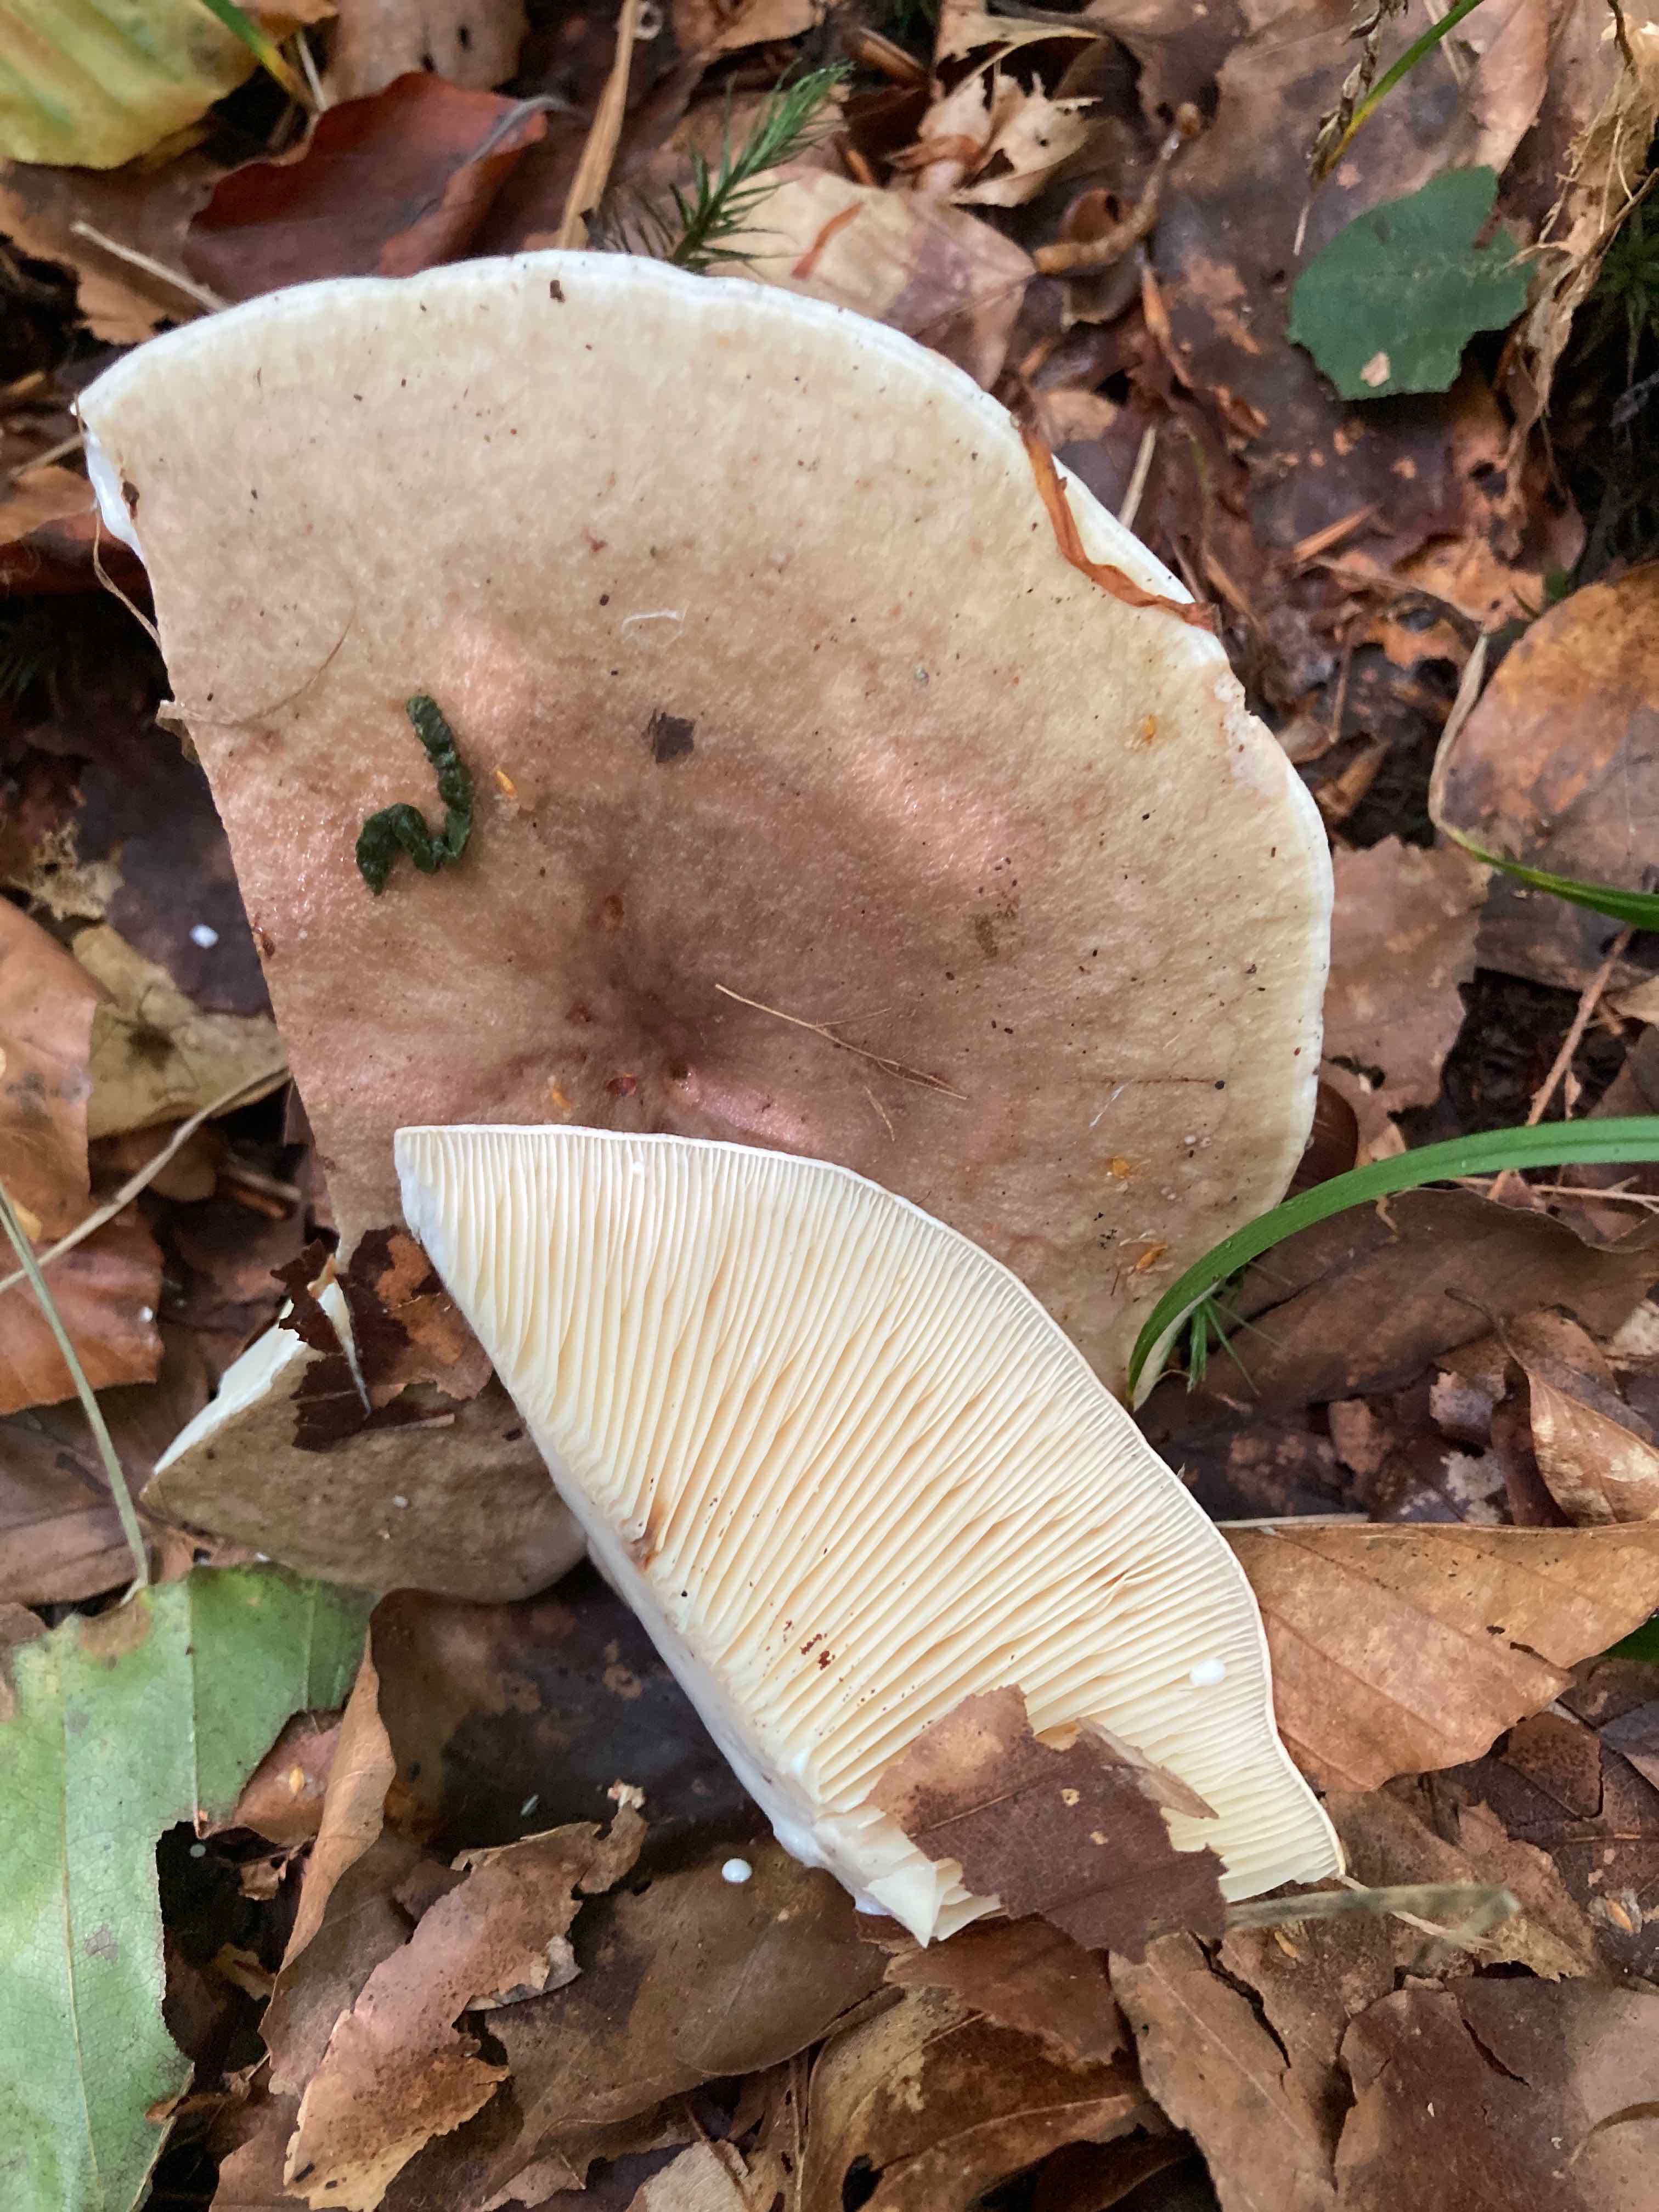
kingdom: Fungi
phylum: Basidiomycota
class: Agaricomycetes
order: Russulales
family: Russulaceae
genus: Lactarius
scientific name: Lactarius fluens
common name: lysrandet mælkehat
